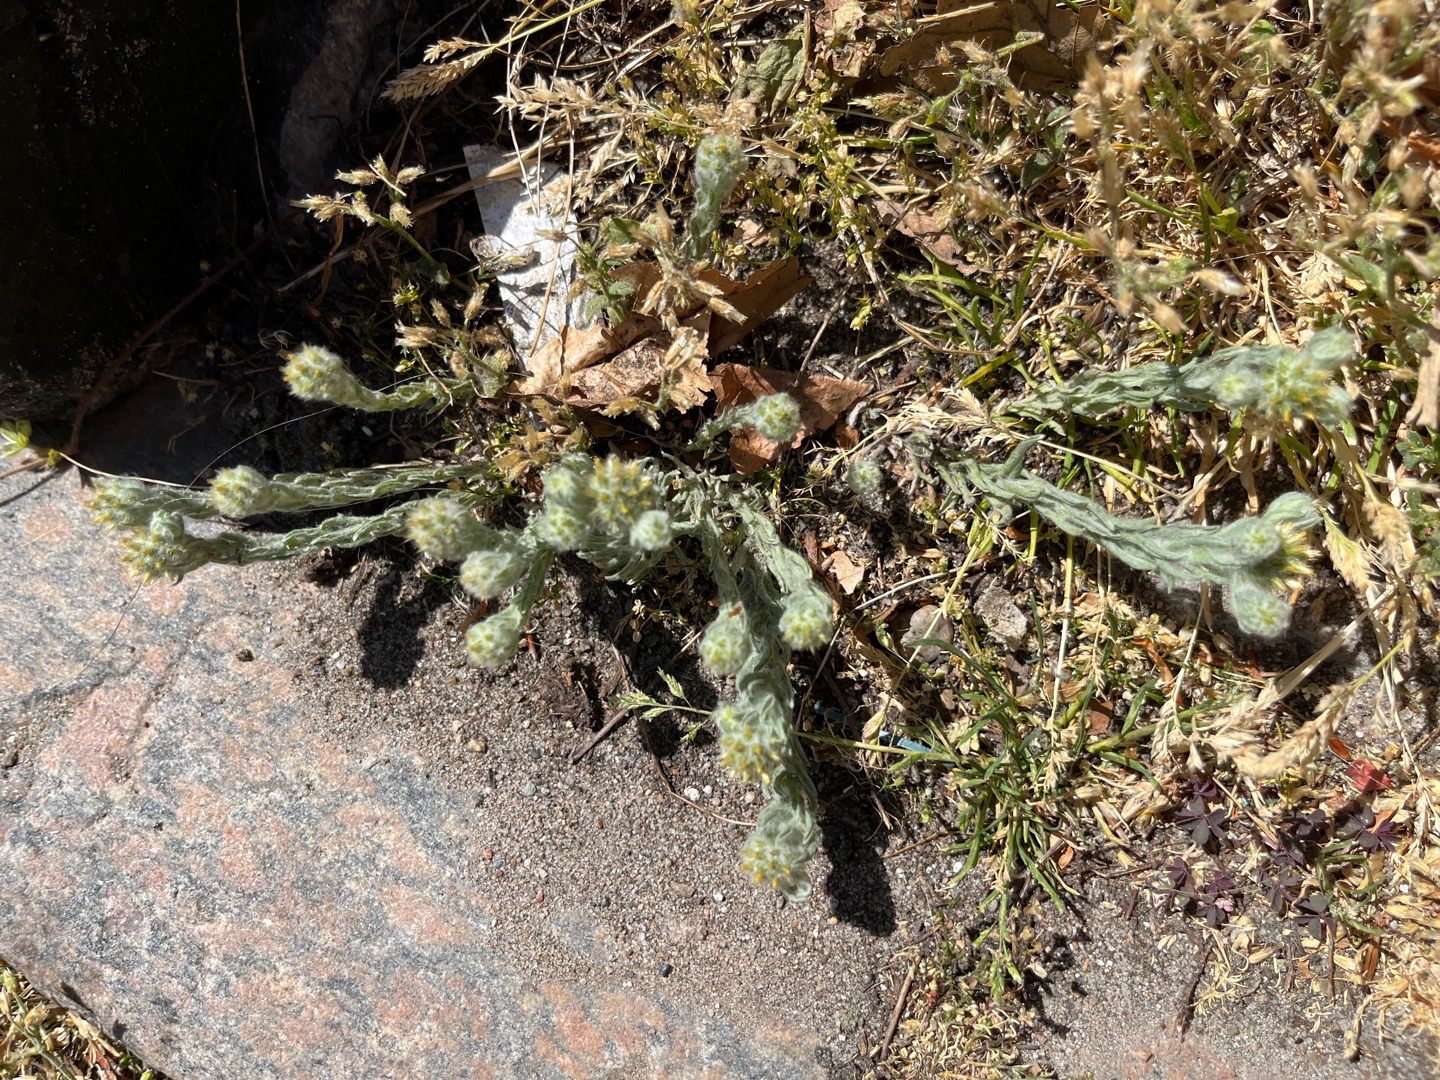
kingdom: Plantae
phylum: Tracheophyta
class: Magnoliopsida
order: Asterales
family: Asteraceae
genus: Filago
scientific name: Filago germanica
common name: Kugle-museurt
